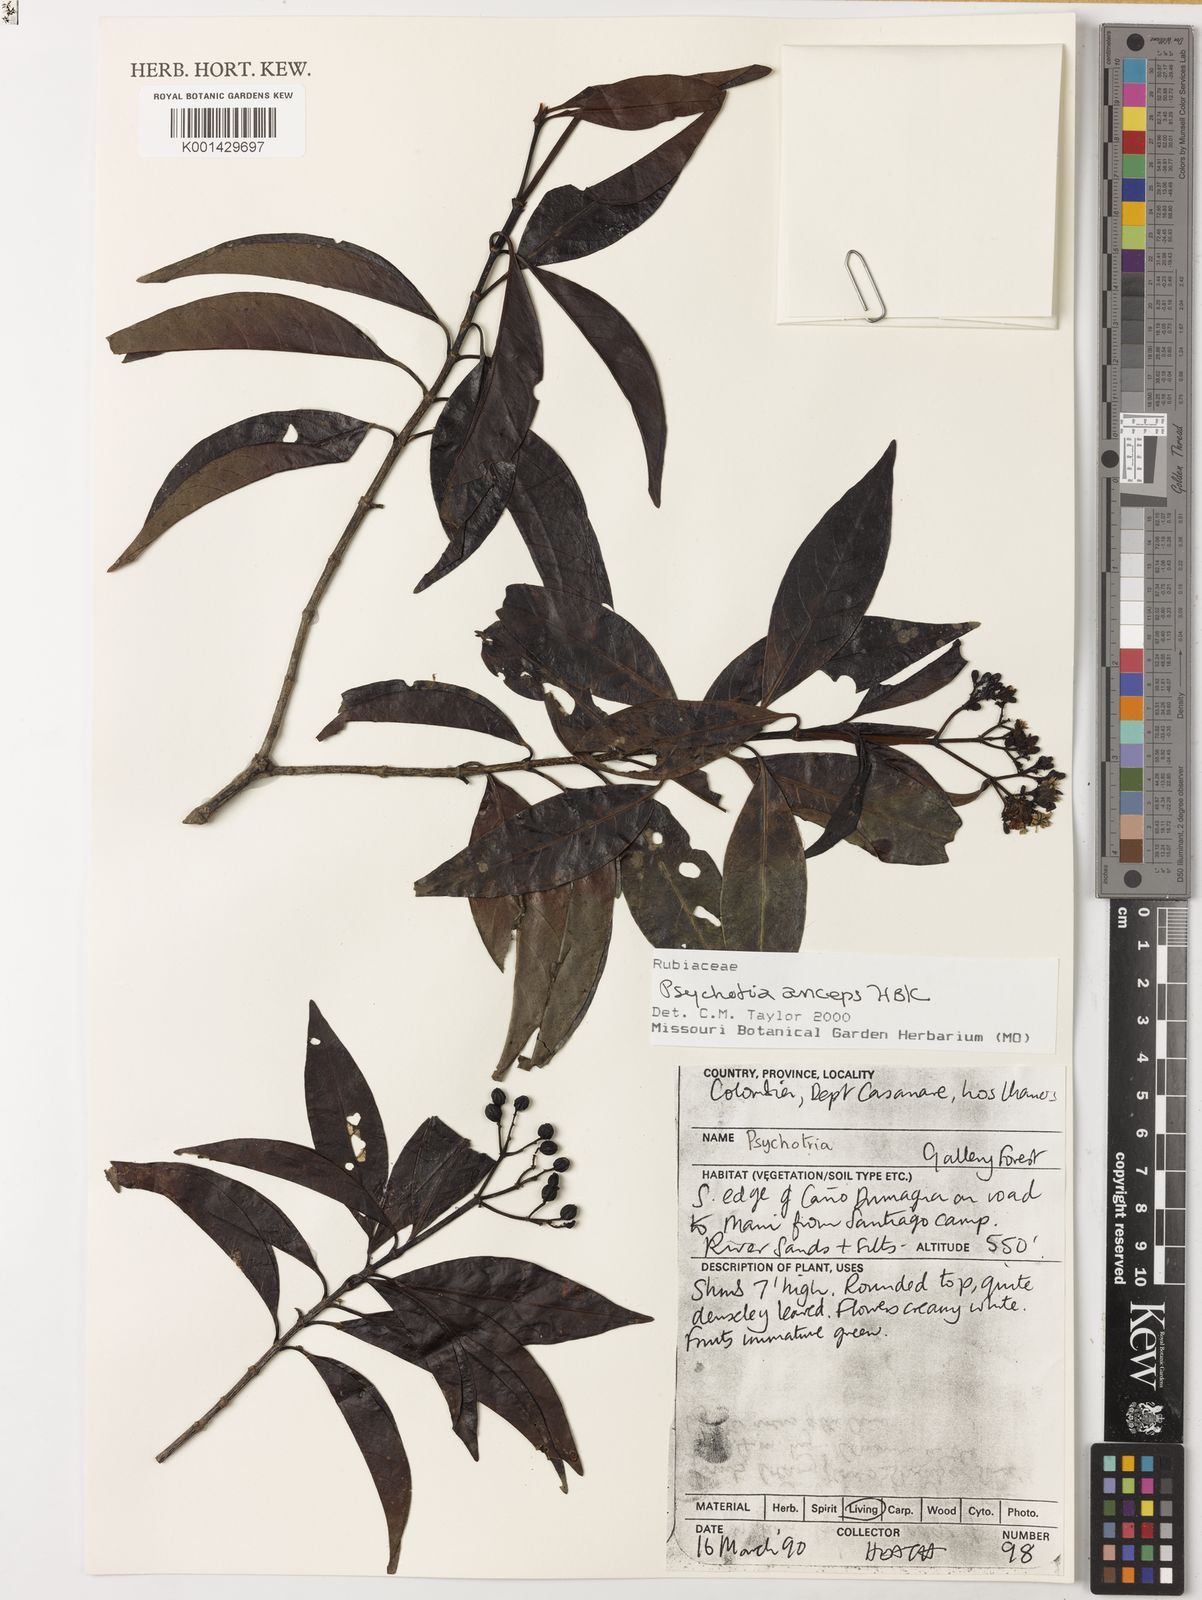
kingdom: Plantae
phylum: Tracheophyta
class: Magnoliopsida
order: Gentianales
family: Rubiaceae
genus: Psychotria
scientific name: Psychotria anceps
